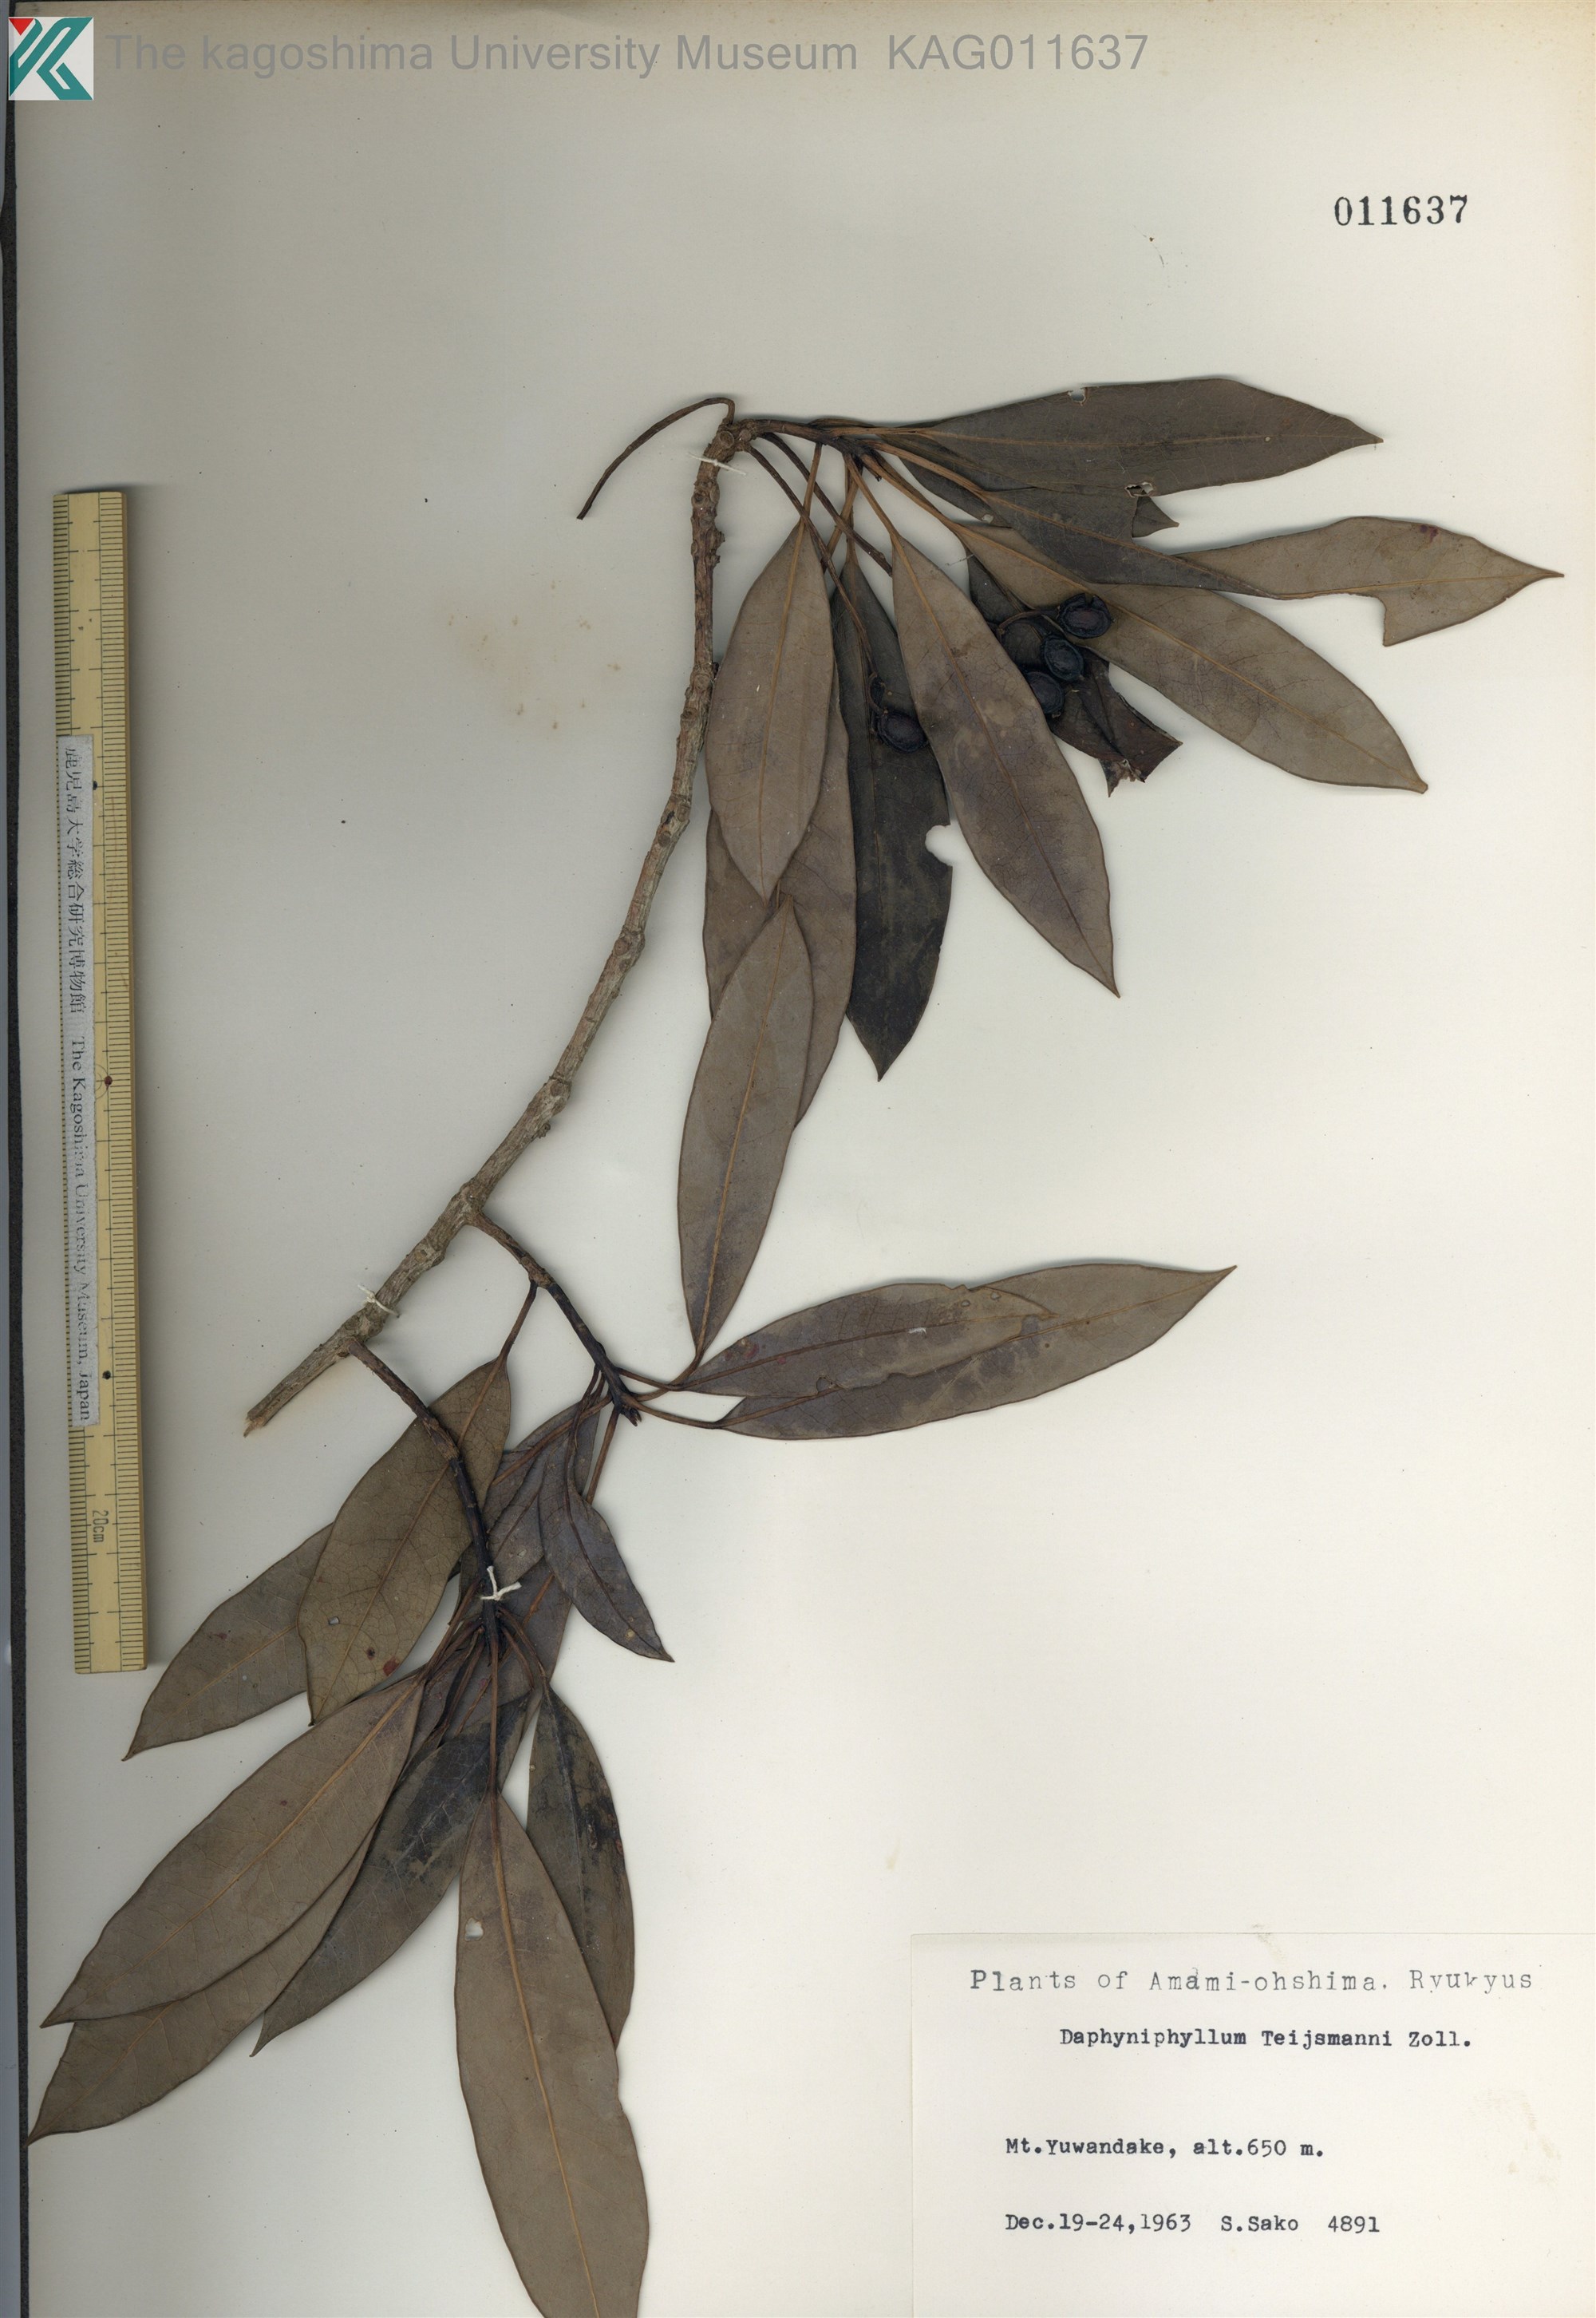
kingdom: Plantae
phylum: Tracheophyta
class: Magnoliopsida
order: Saxifragales
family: Daphniphyllaceae
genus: Daphniphyllum
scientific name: Daphniphyllum teijsmannii
